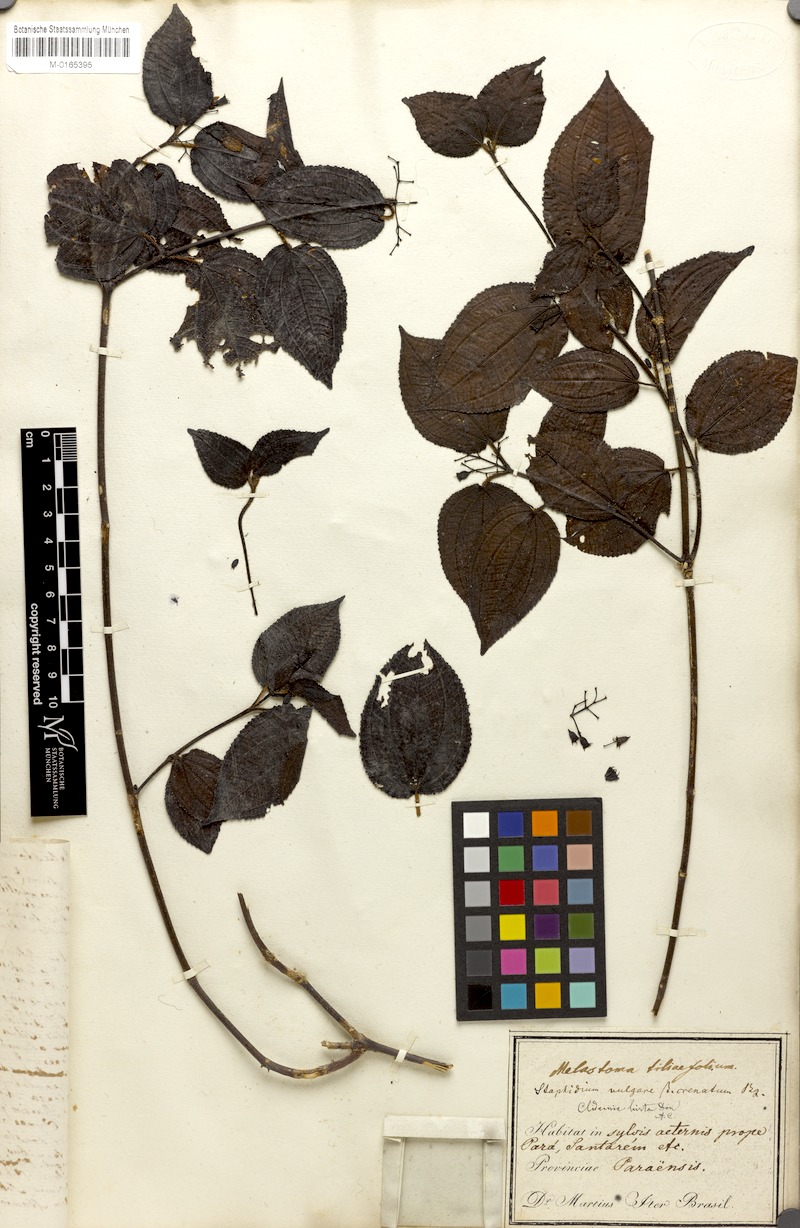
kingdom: Plantae
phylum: Tracheophyta
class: Magnoliopsida
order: Myrtales
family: Melastomataceae
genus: Melastoma
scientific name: Melastoma tiliifolium
